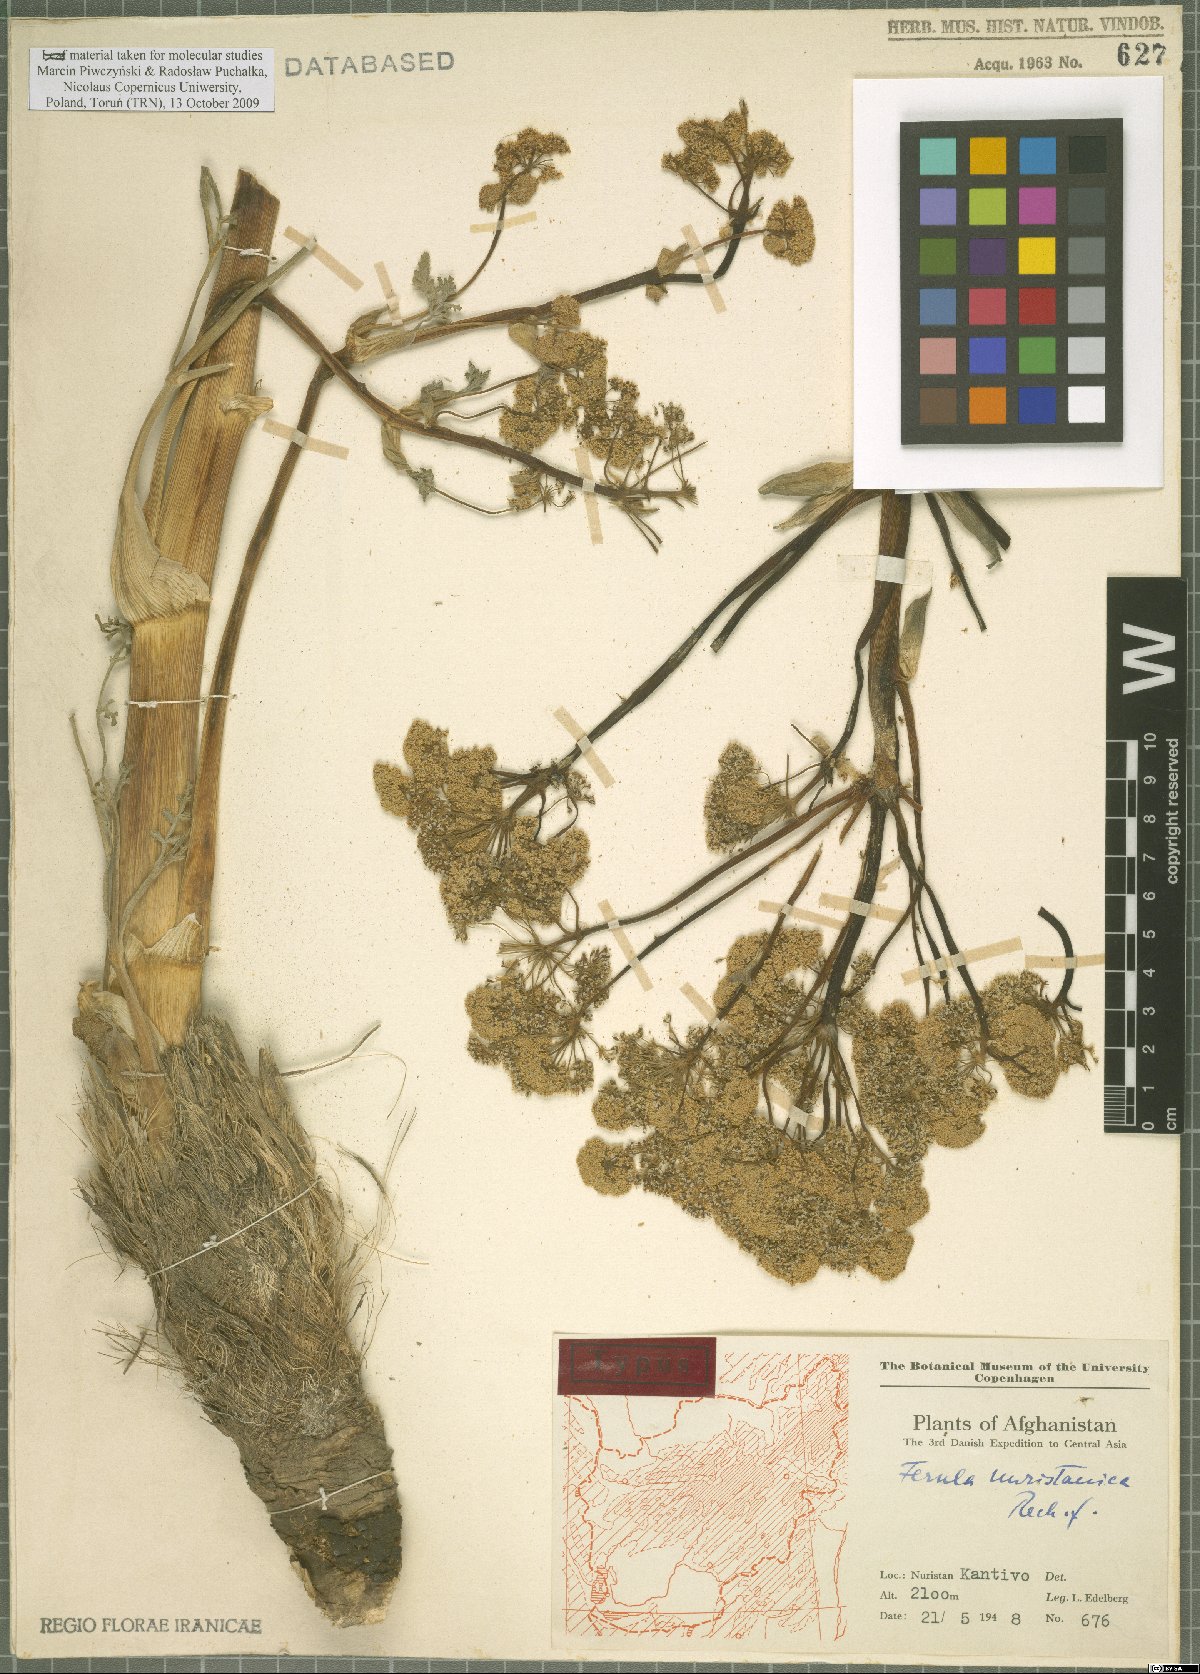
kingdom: Plantae
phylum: Tracheophyta
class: Magnoliopsida
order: Apiales
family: Apiaceae
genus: Ferula
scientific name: Ferula nuristanica
